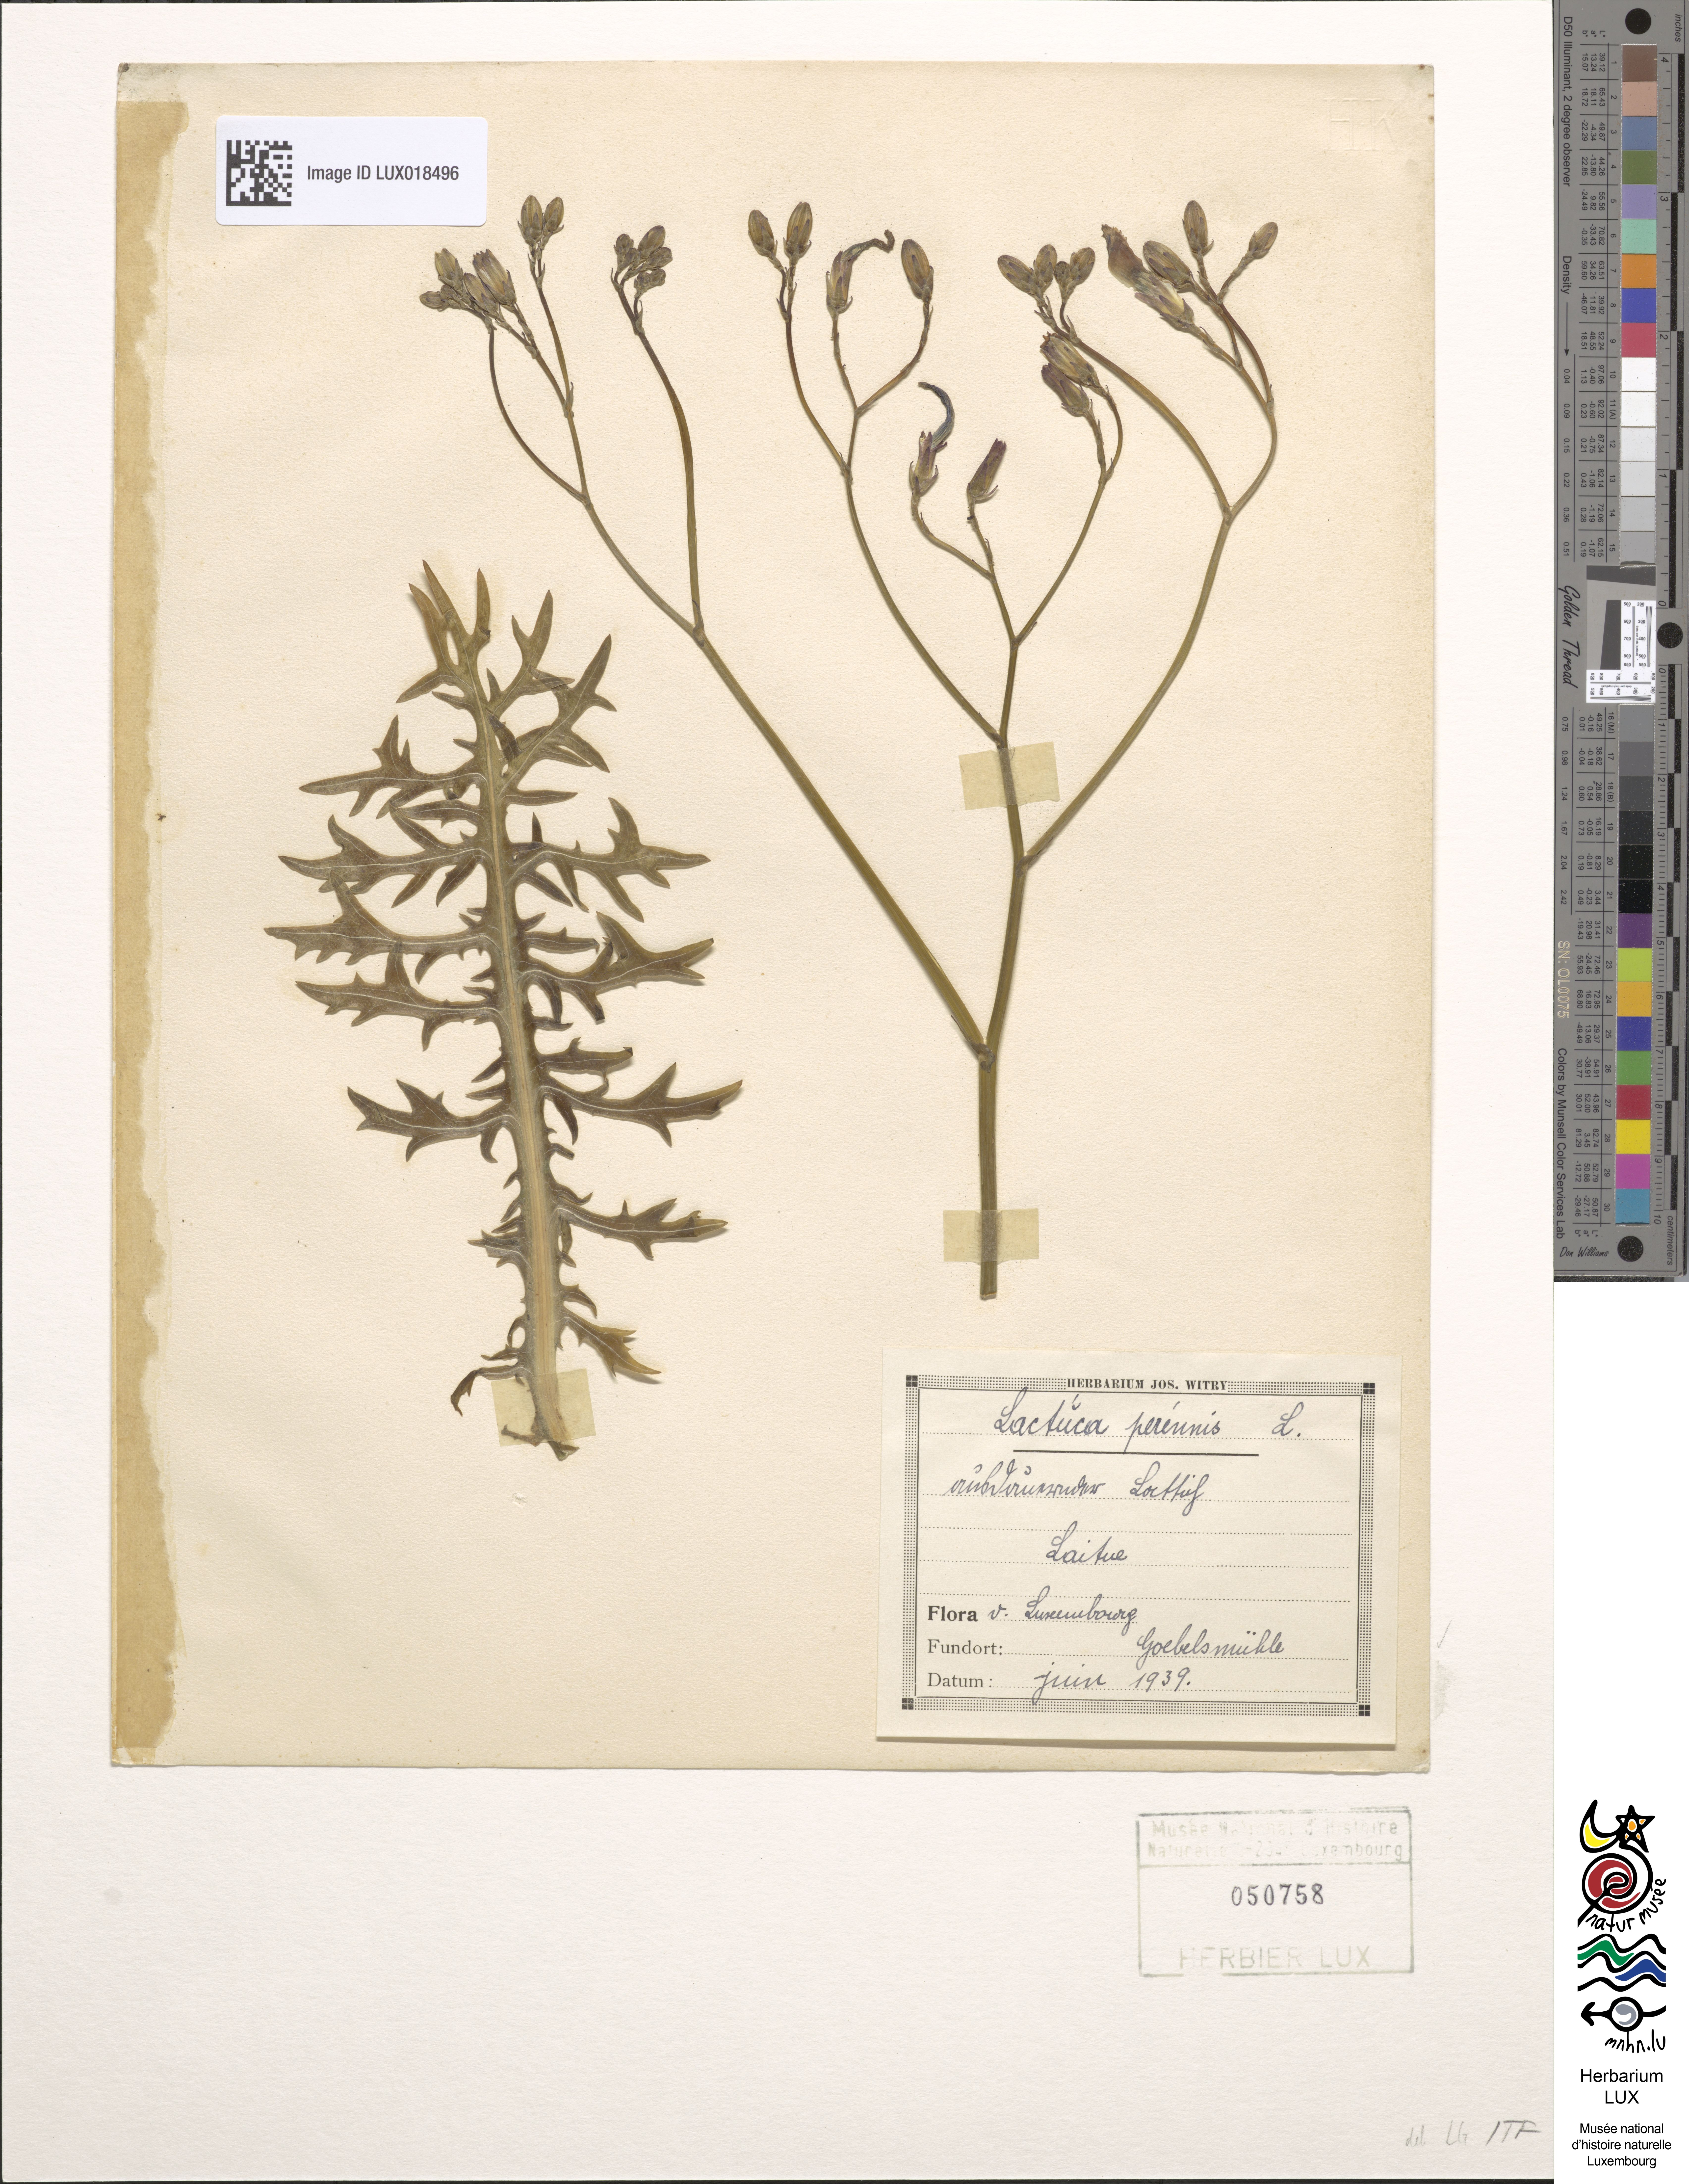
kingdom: Plantae
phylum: Tracheophyta
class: Magnoliopsida
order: Asterales
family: Asteraceae
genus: Lactuca
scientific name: Lactuca perennis
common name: Mountain lettuce
